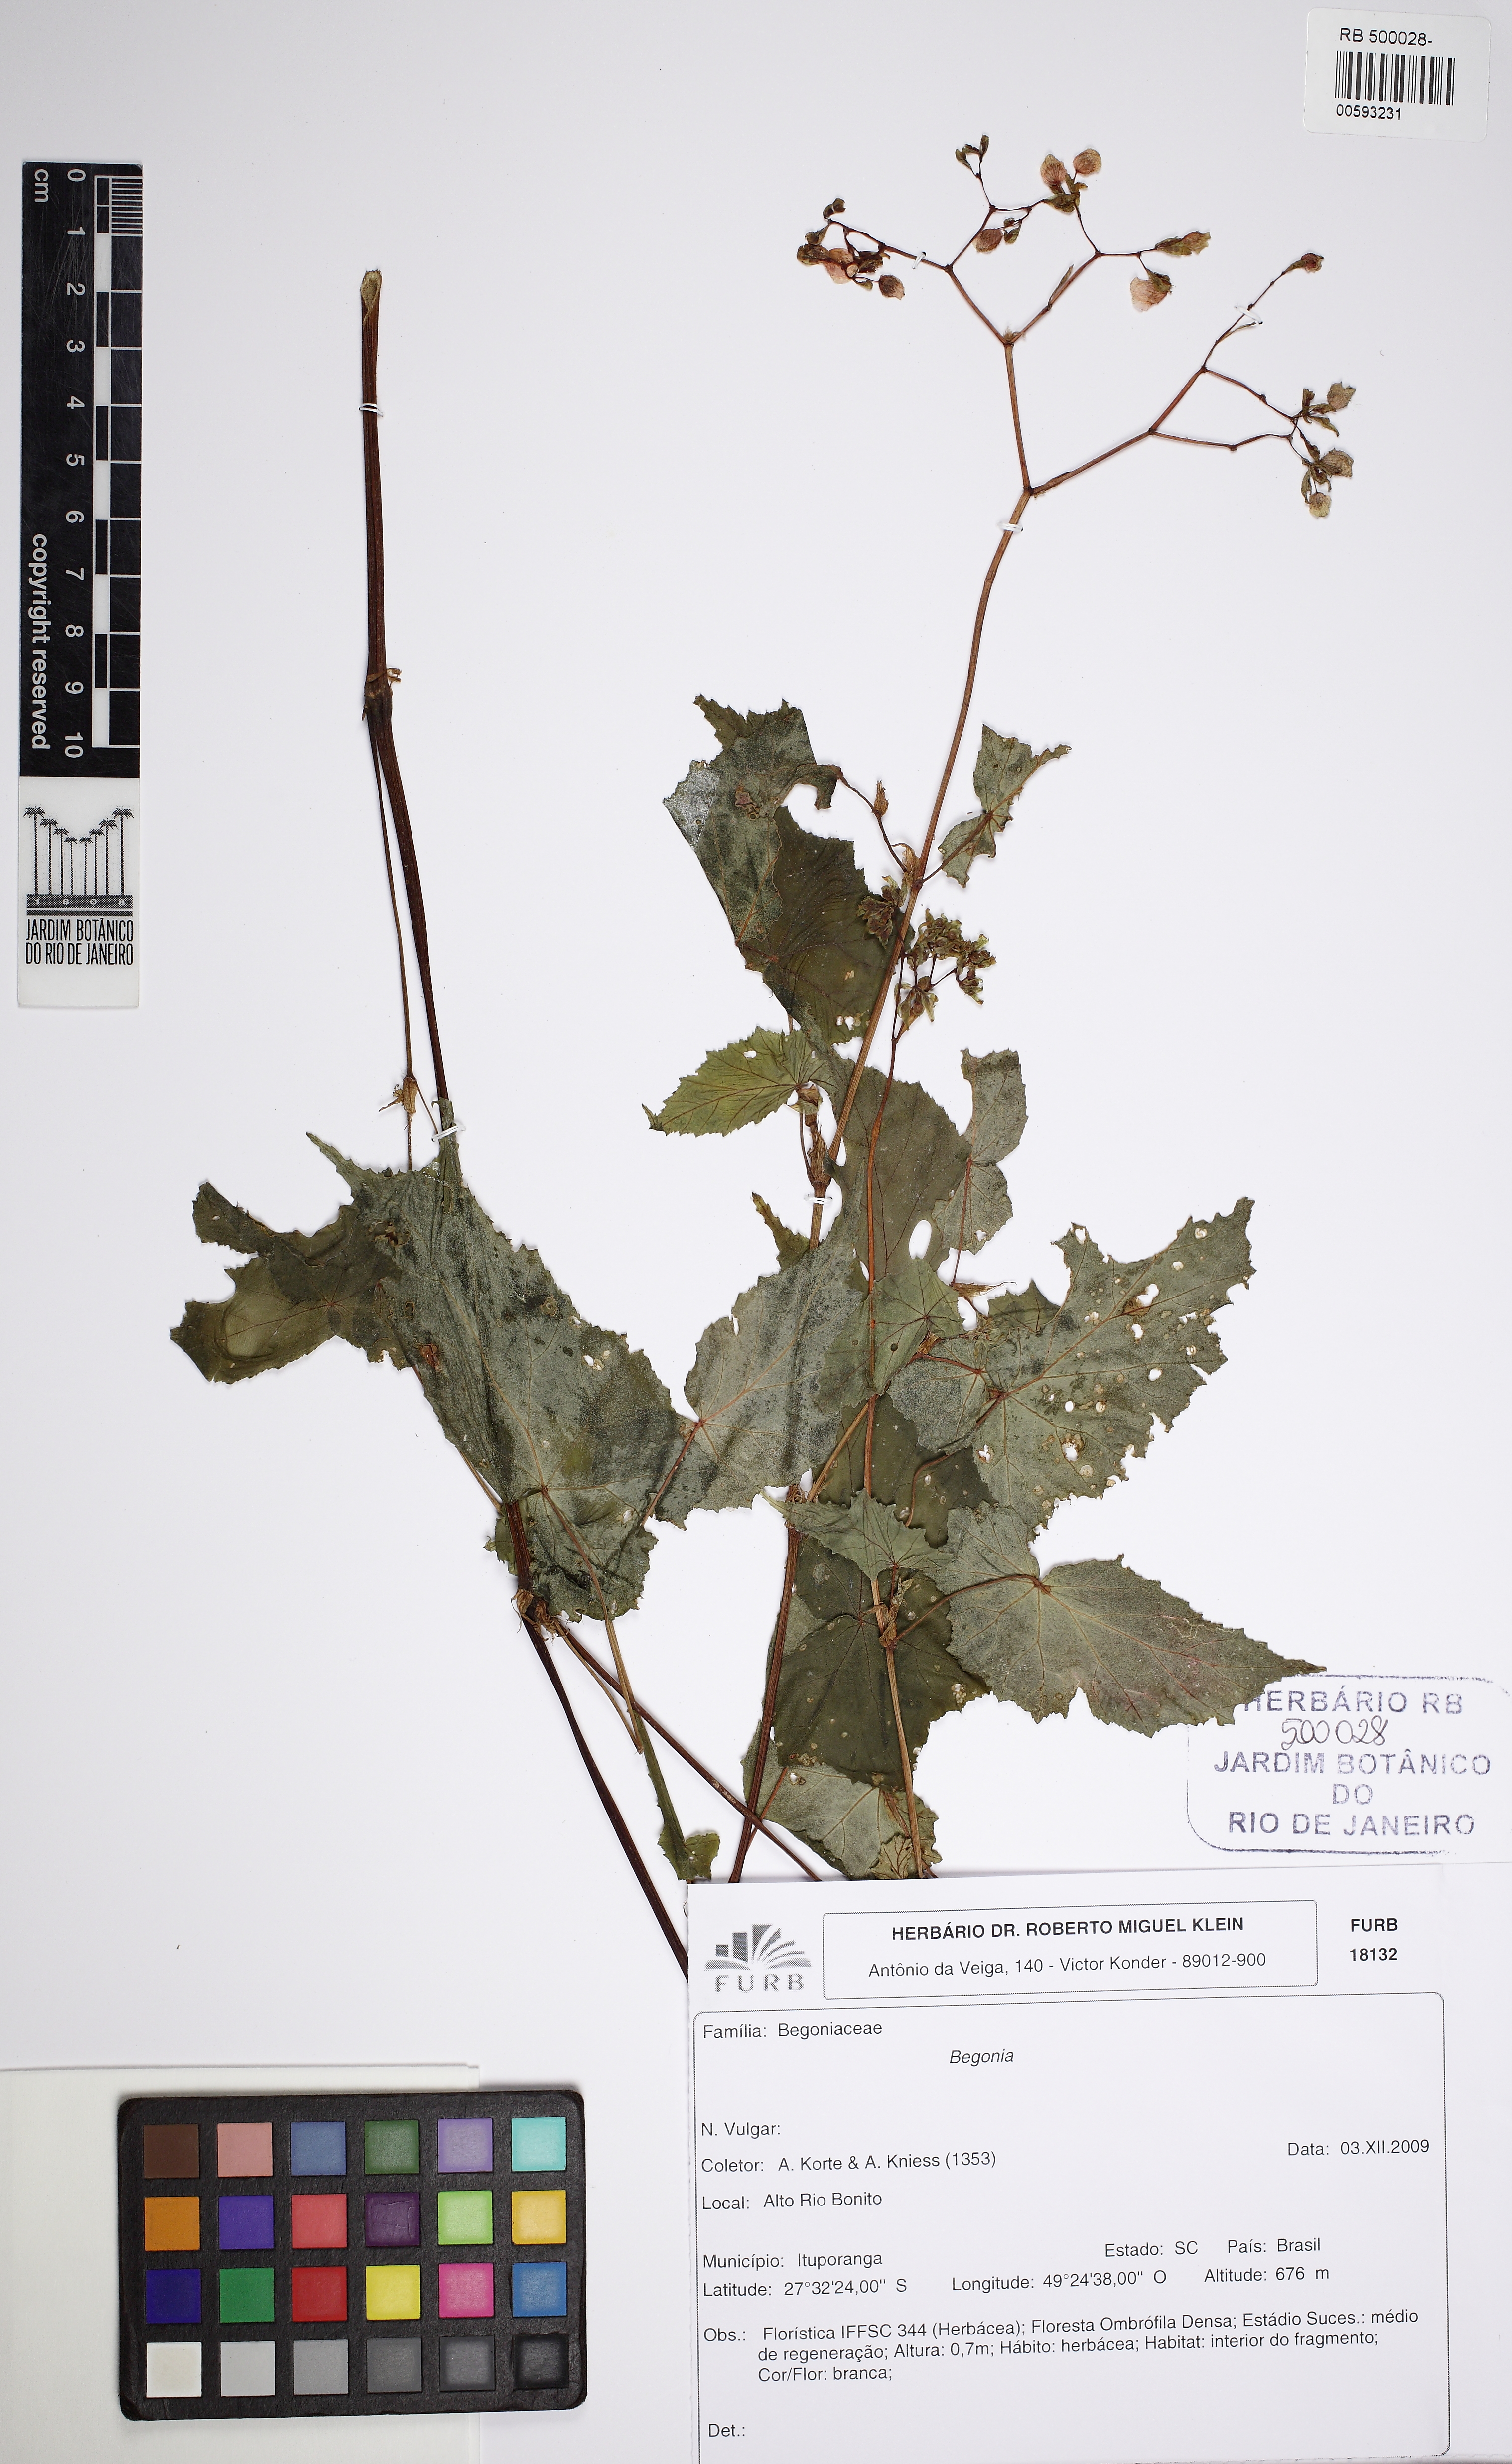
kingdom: Plantae
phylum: Tracheophyta
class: Magnoliopsida
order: Cucurbitales
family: Begoniaceae
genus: Begonia
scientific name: Begonia isopterocarpa
